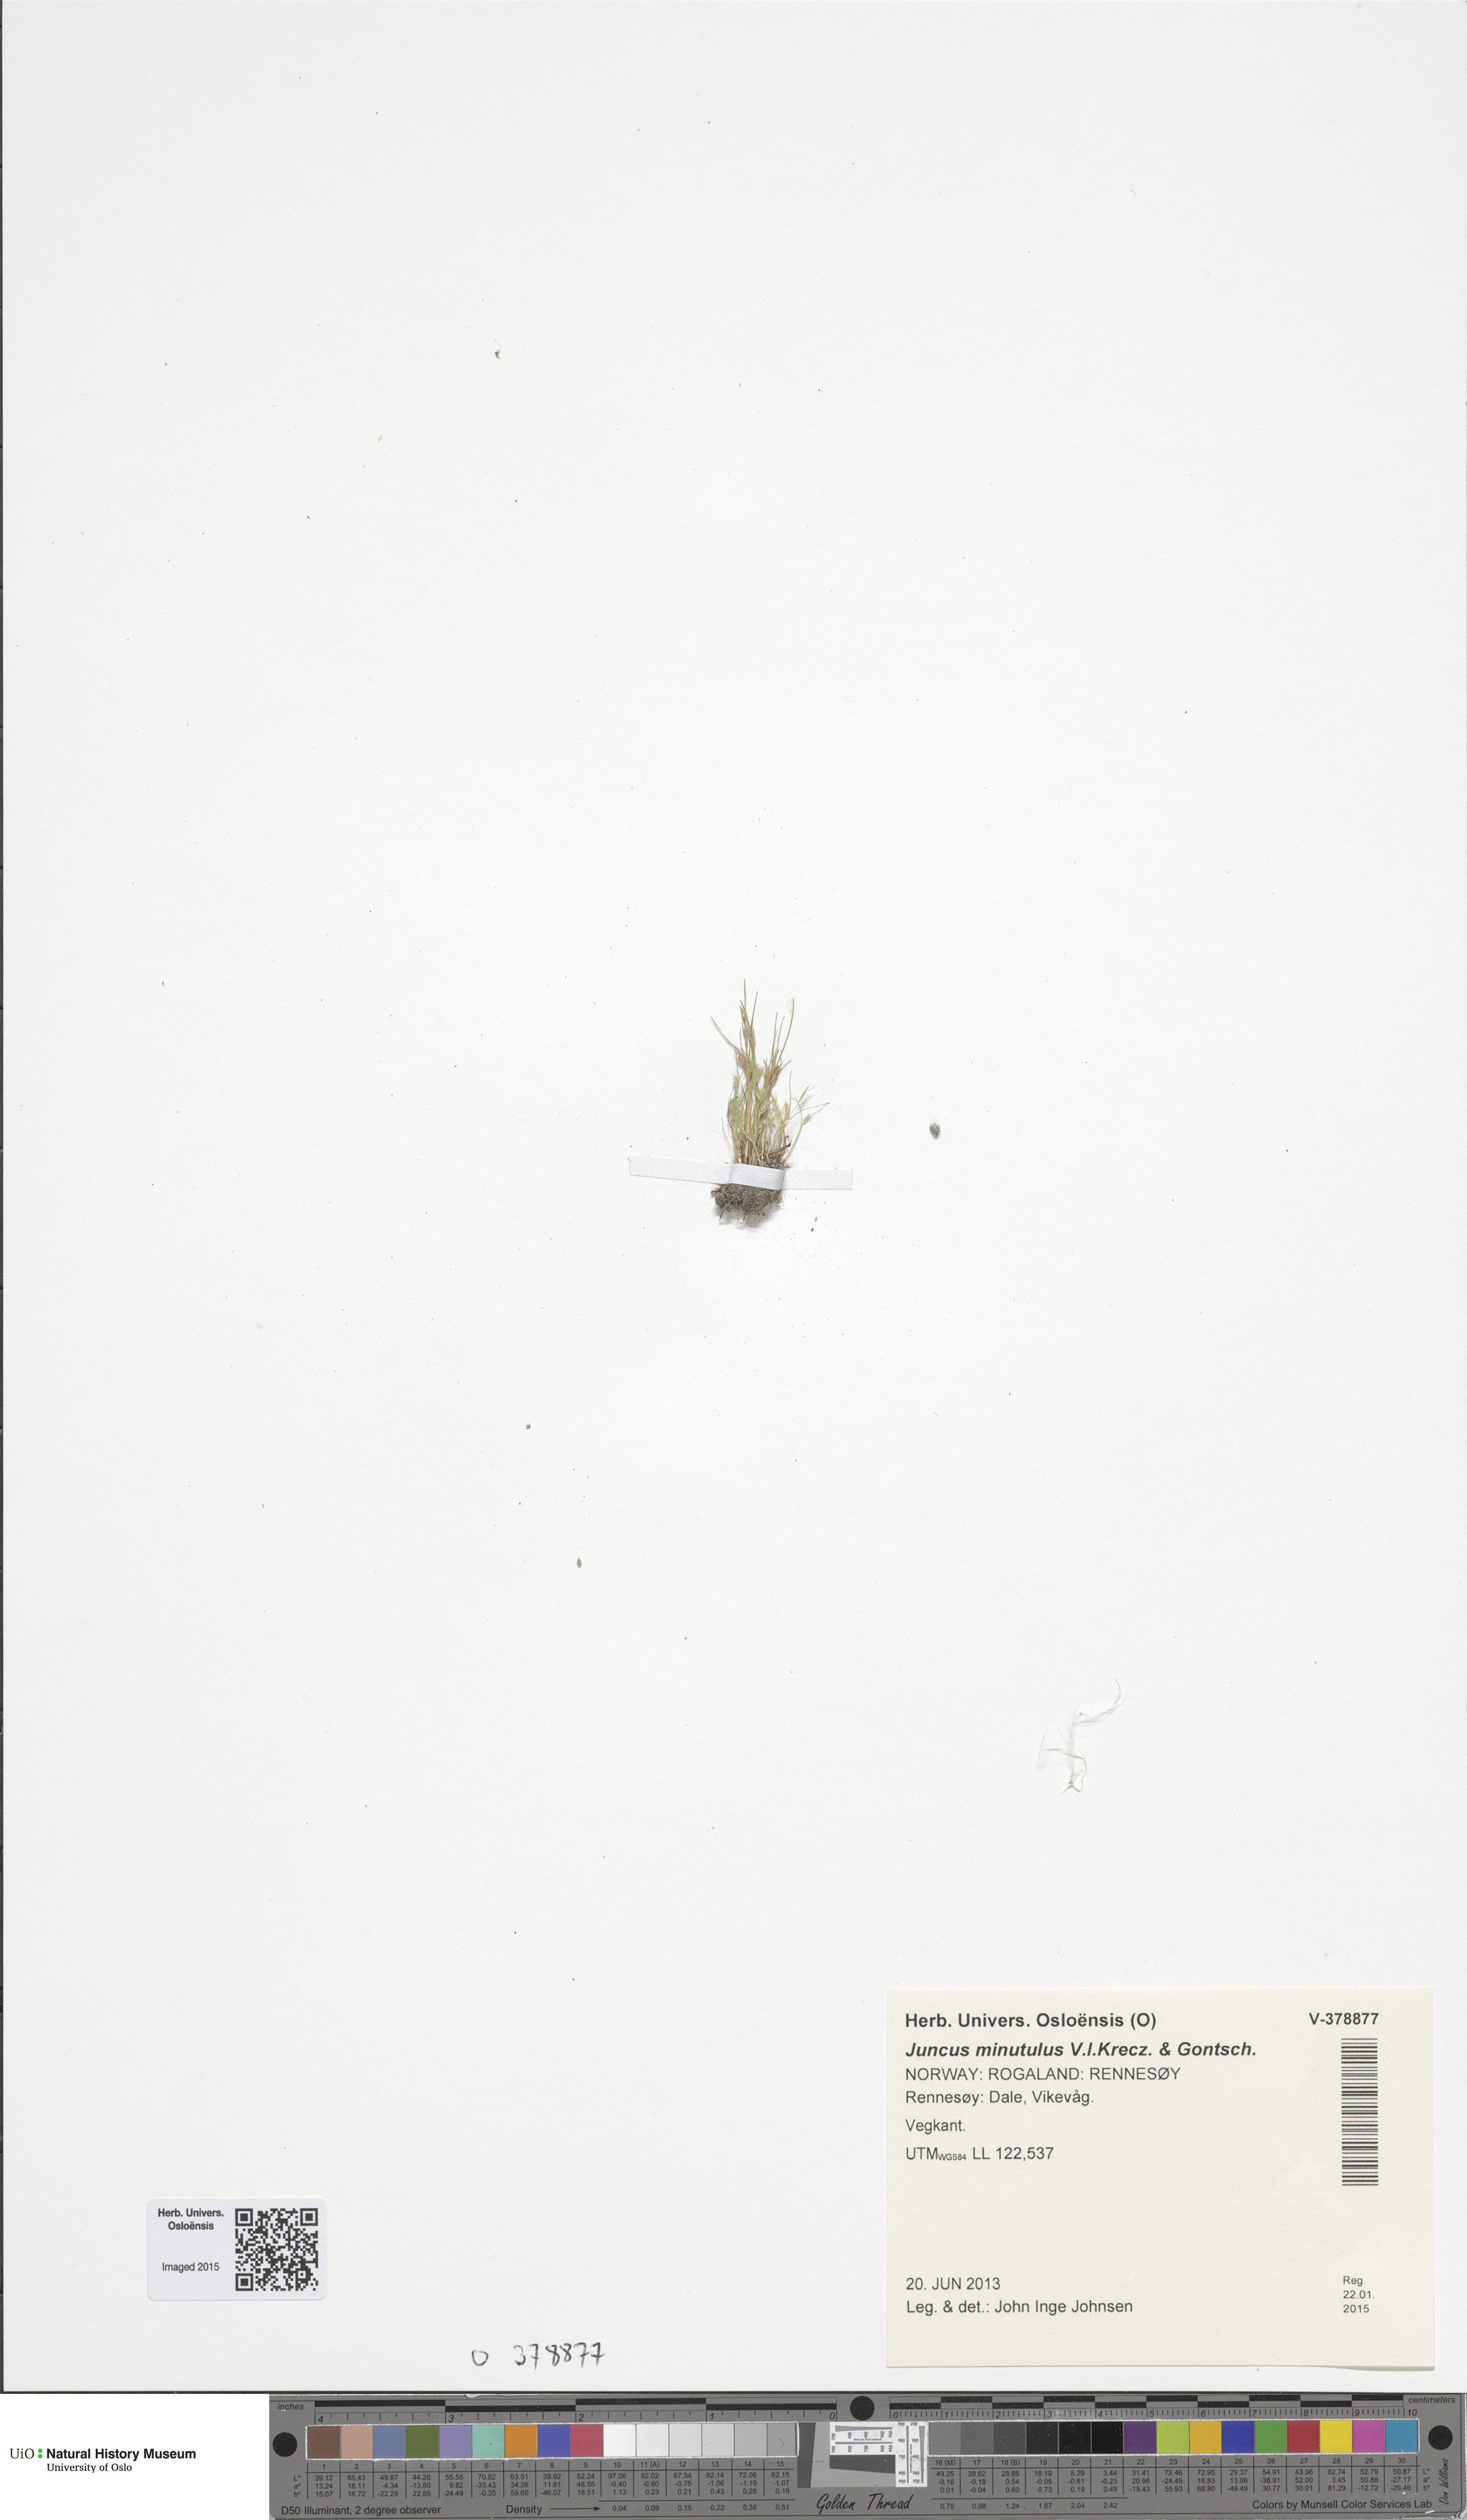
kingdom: Plantae
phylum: Tracheophyta
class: Liliopsida
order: Poales
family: Juncaceae
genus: Juncus
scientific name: Juncus minutulus
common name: Minute rush
